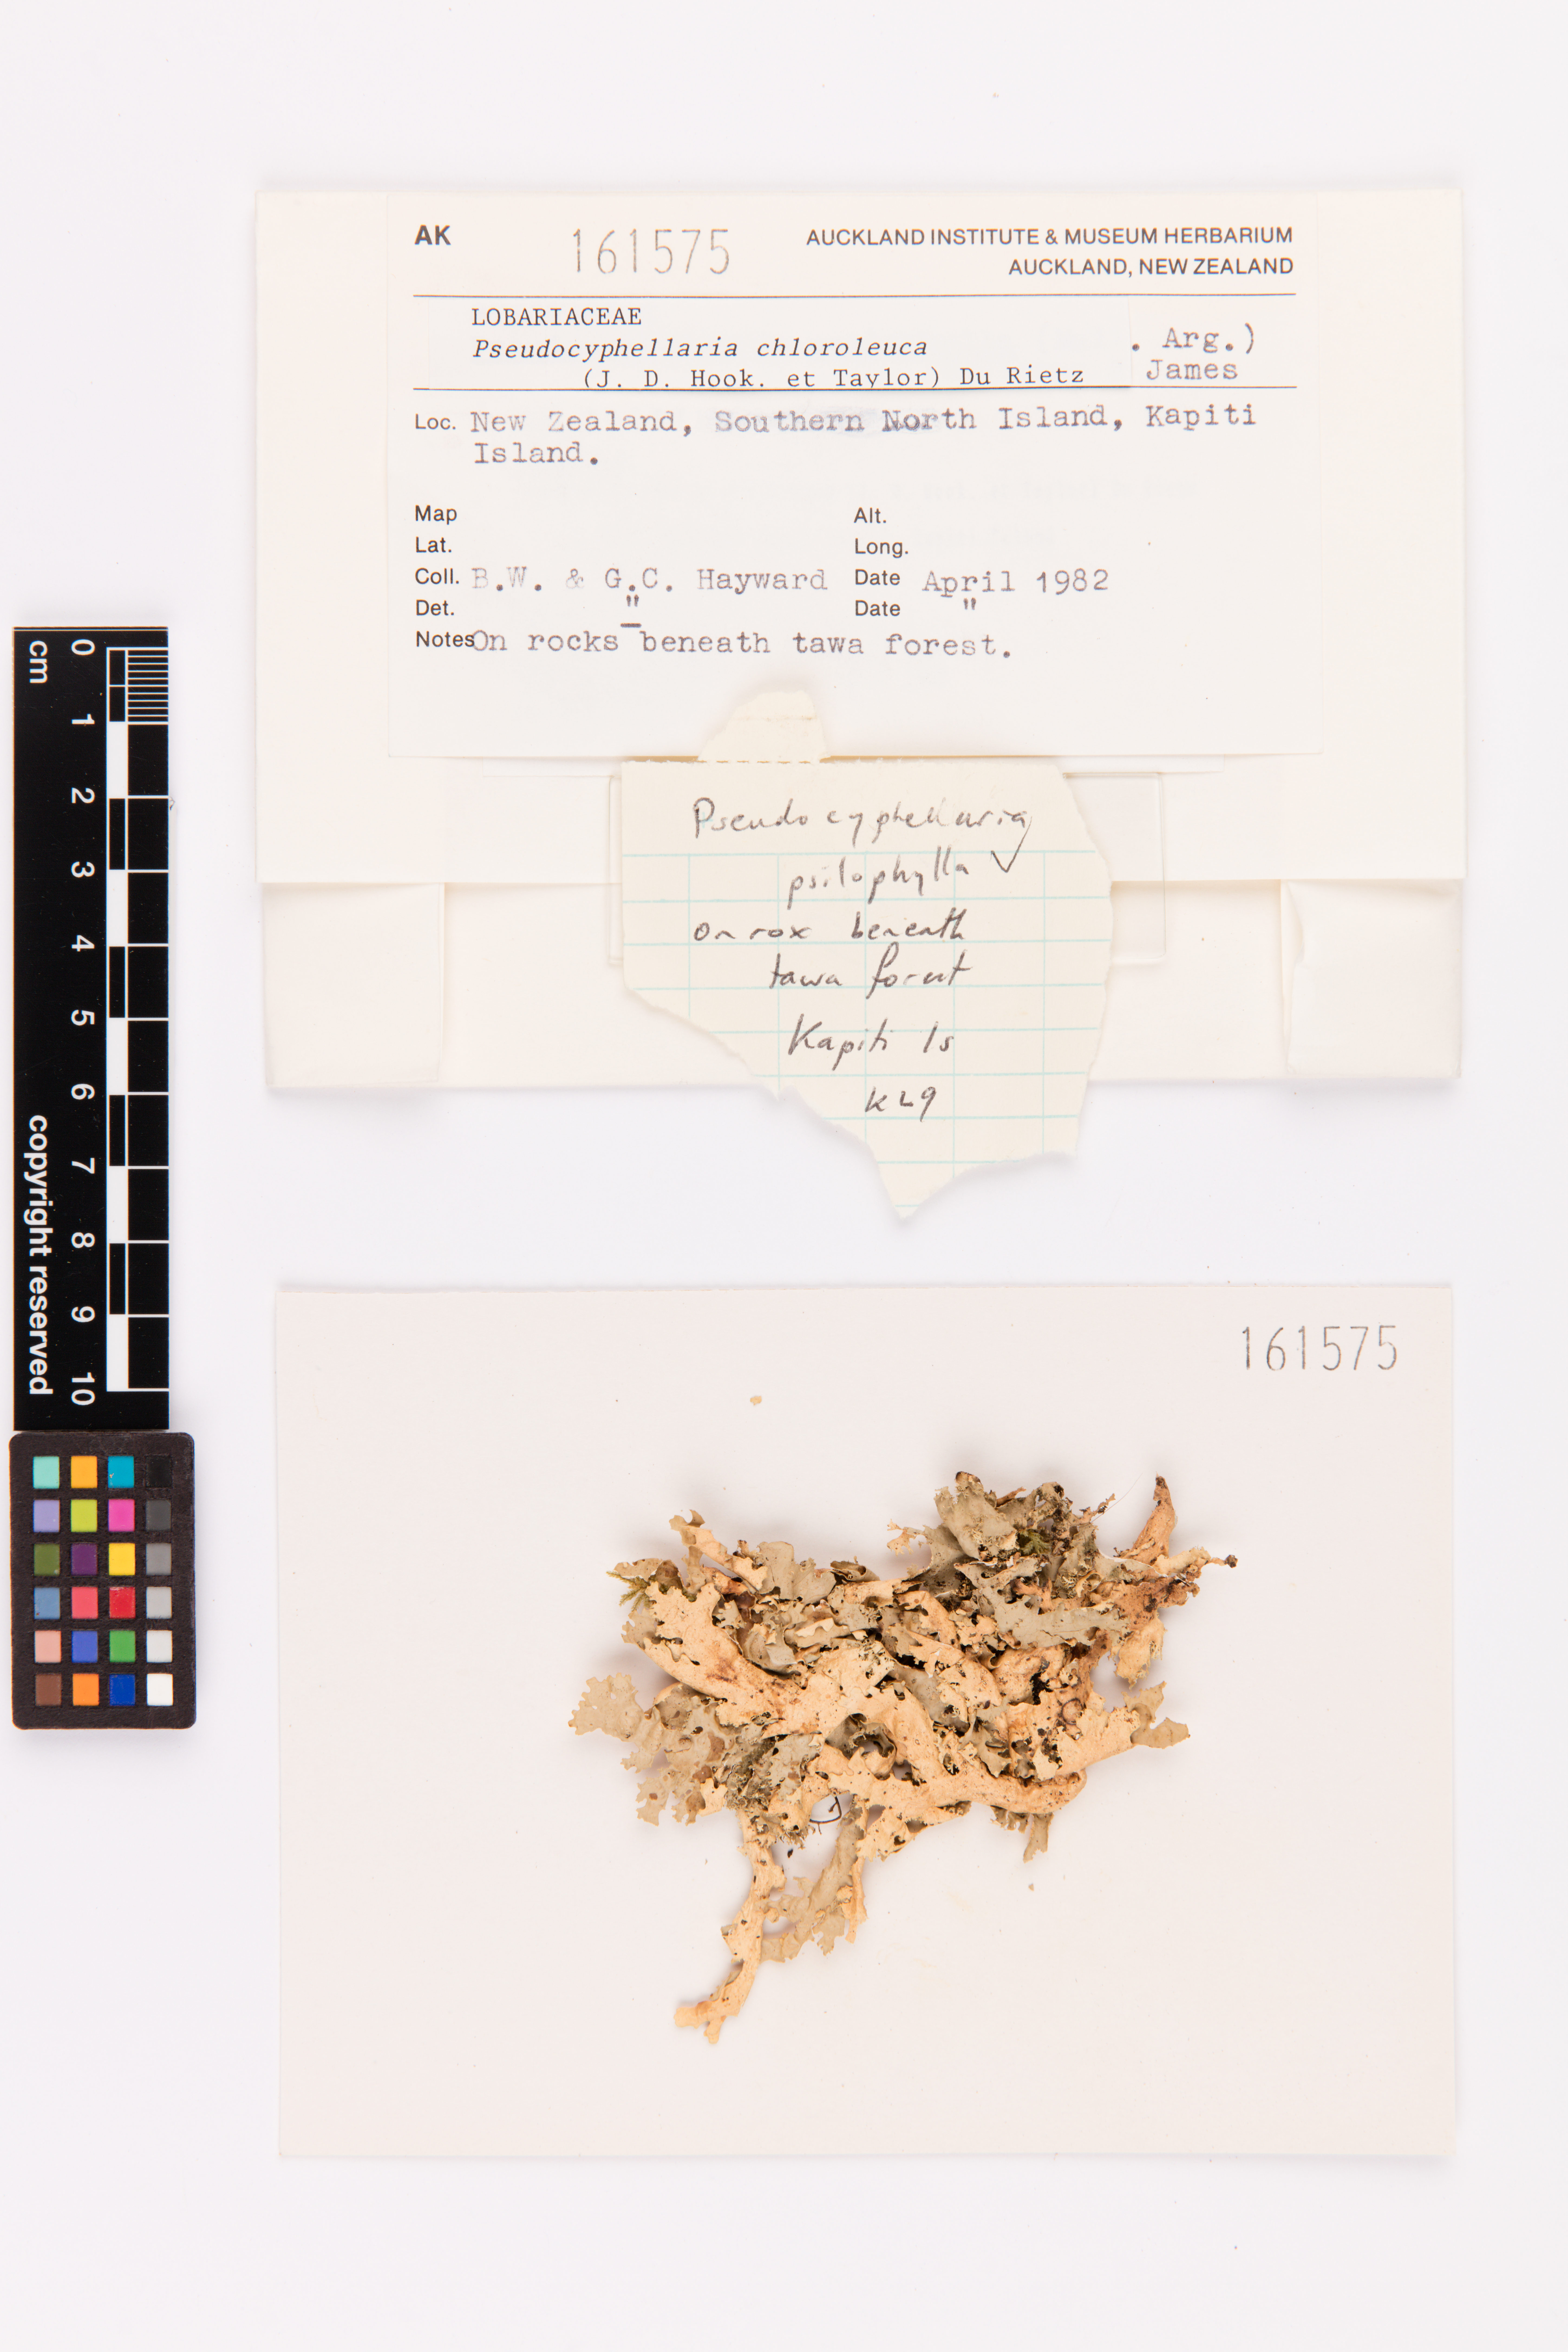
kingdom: Fungi
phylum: Ascomycota
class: Lecanoromycetes
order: Peltigerales
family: Lobariaceae
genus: Pseudocyphellaria
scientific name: Pseudocyphellaria chloroleuca
